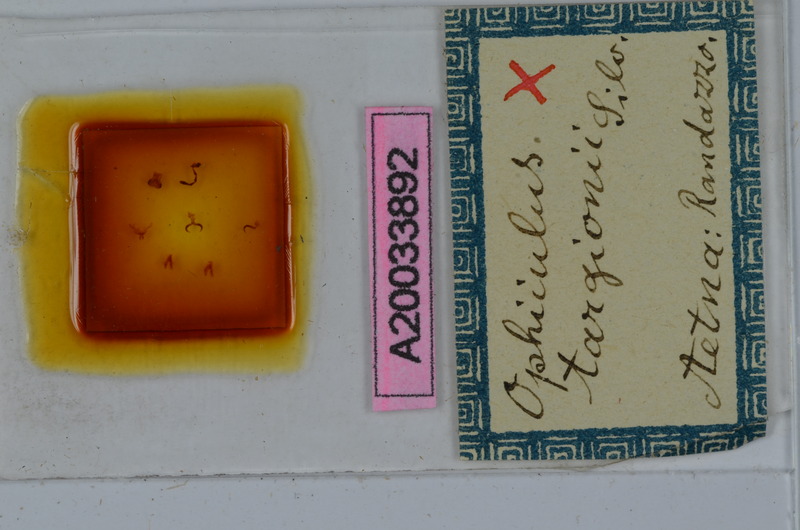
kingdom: Animalia
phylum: Arthropoda
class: Diplopoda
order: Julida
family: Julidae
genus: Ophyiulus
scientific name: Ophyiulus targionii
